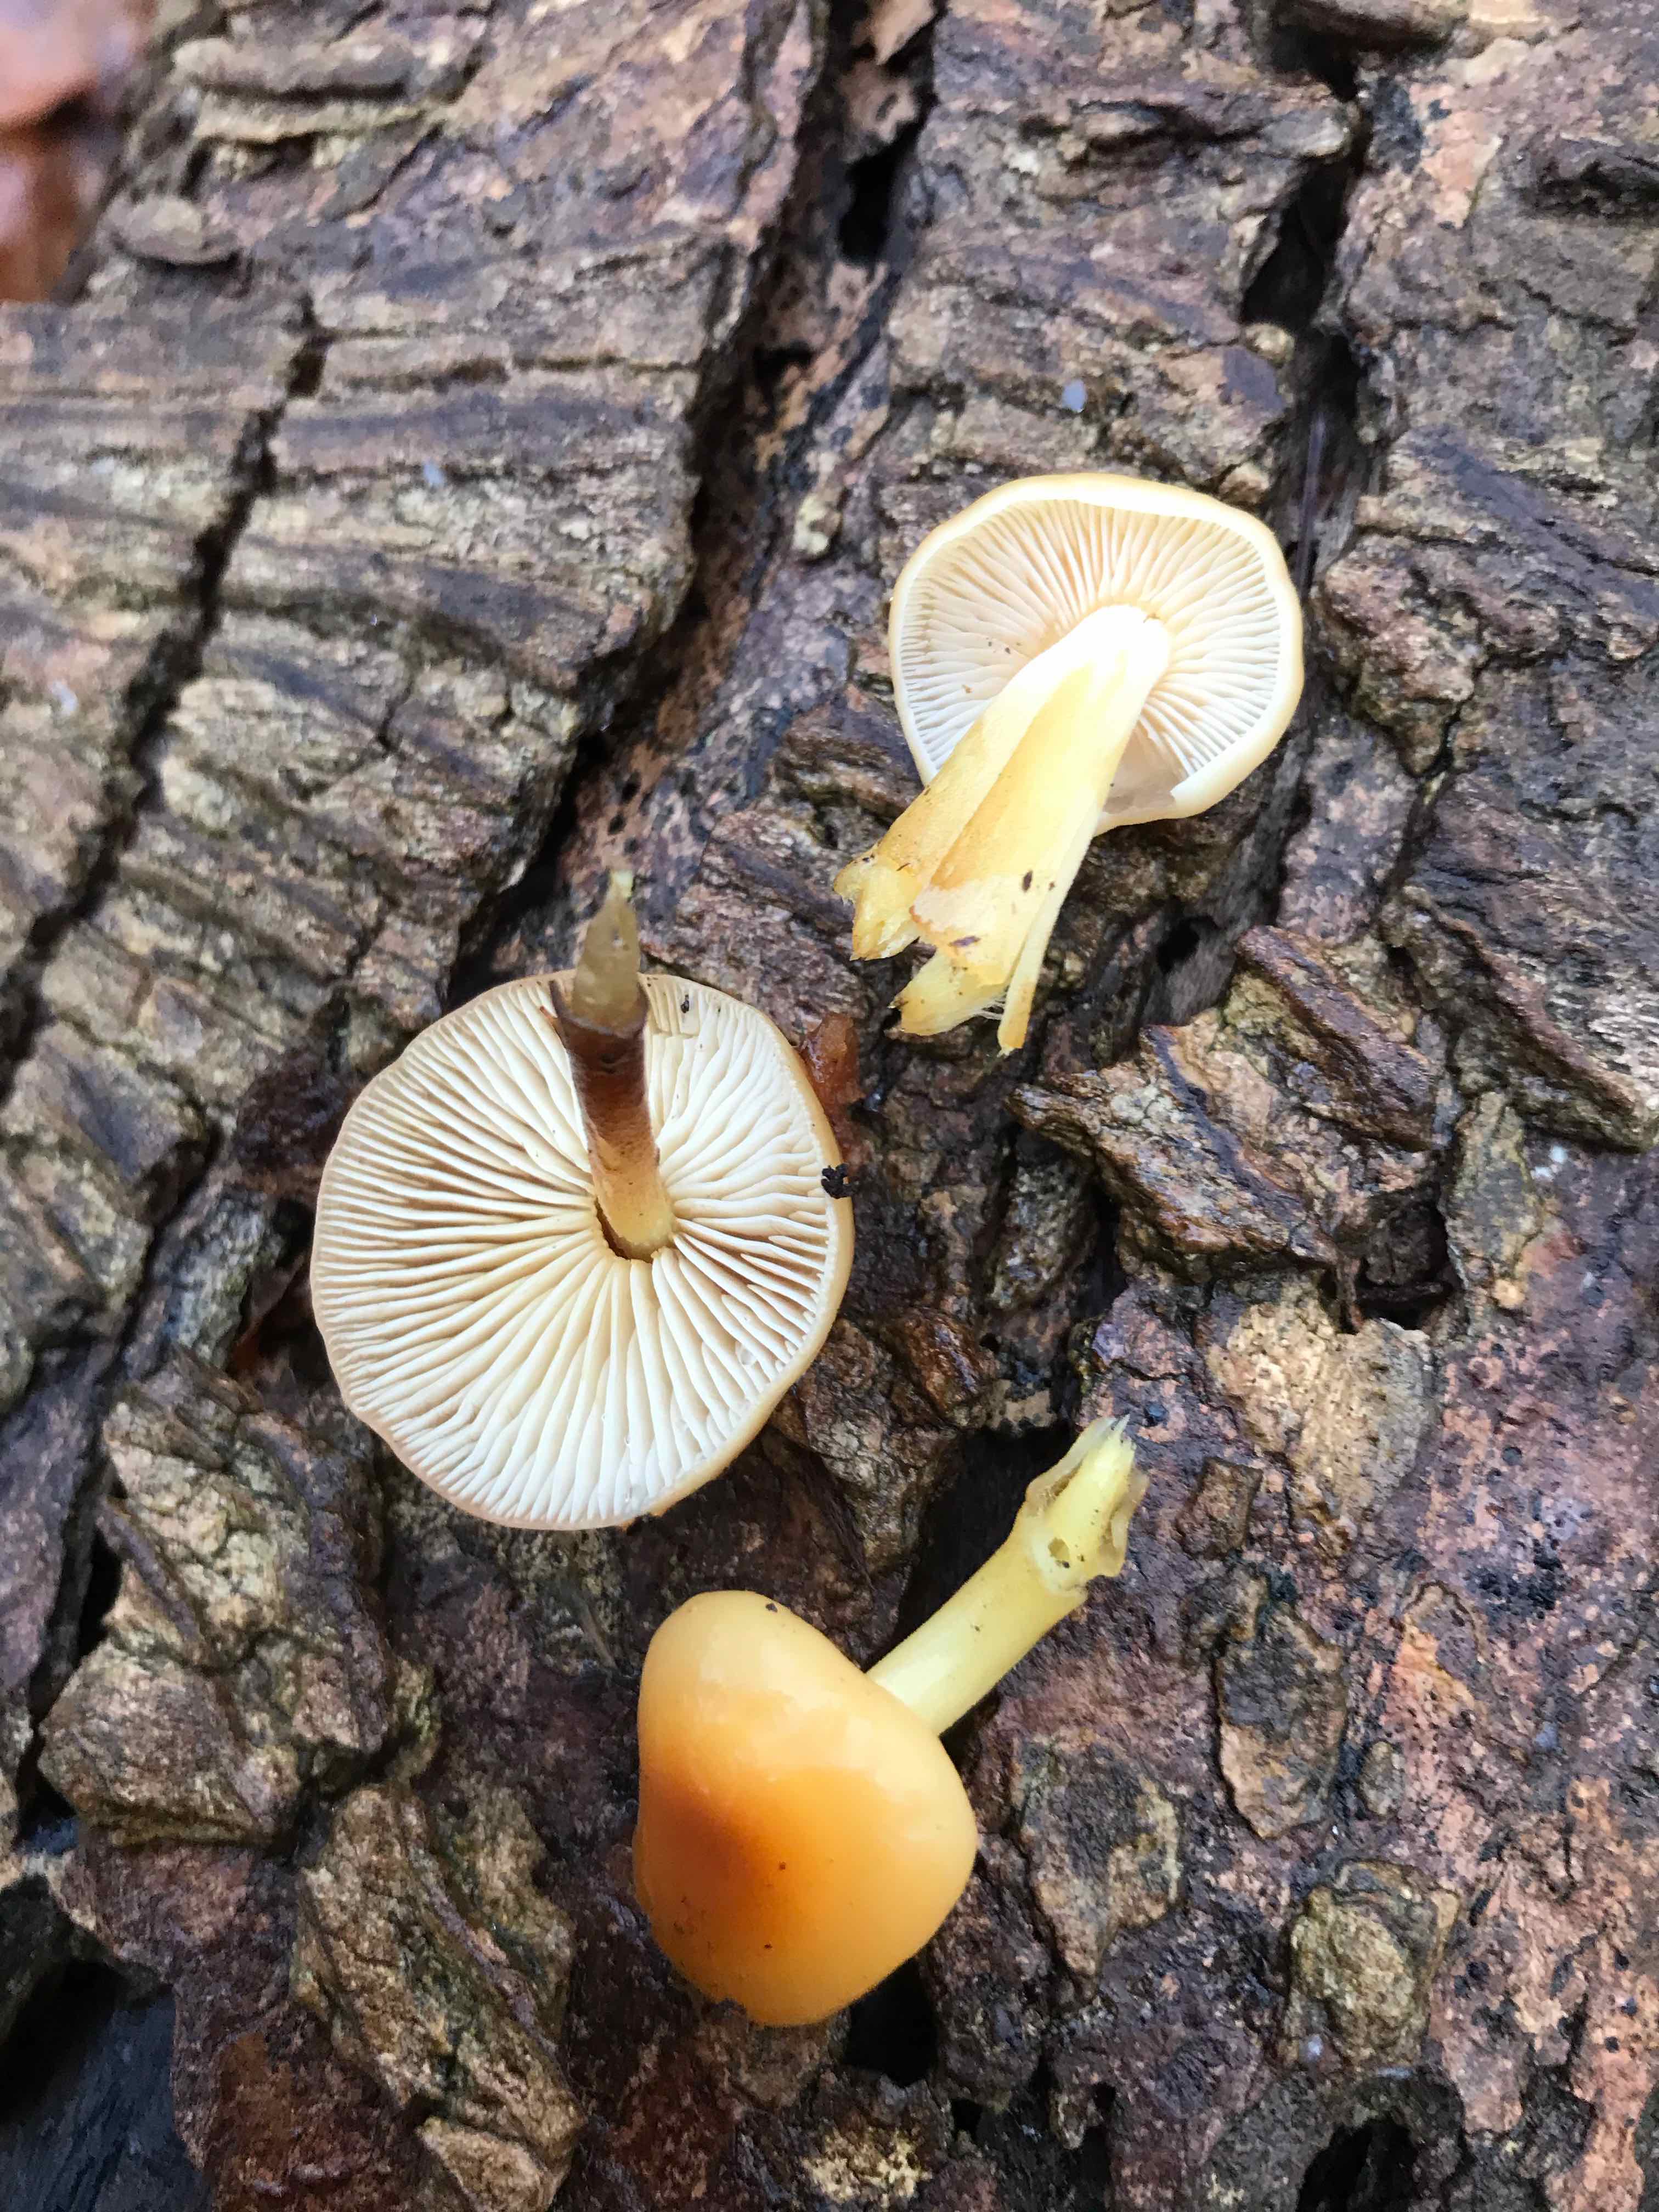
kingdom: Fungi
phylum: Basidiomycota
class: Agaricomycetes
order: Agaricales
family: Physalacriaceae
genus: Flammulina
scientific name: Flammulina
